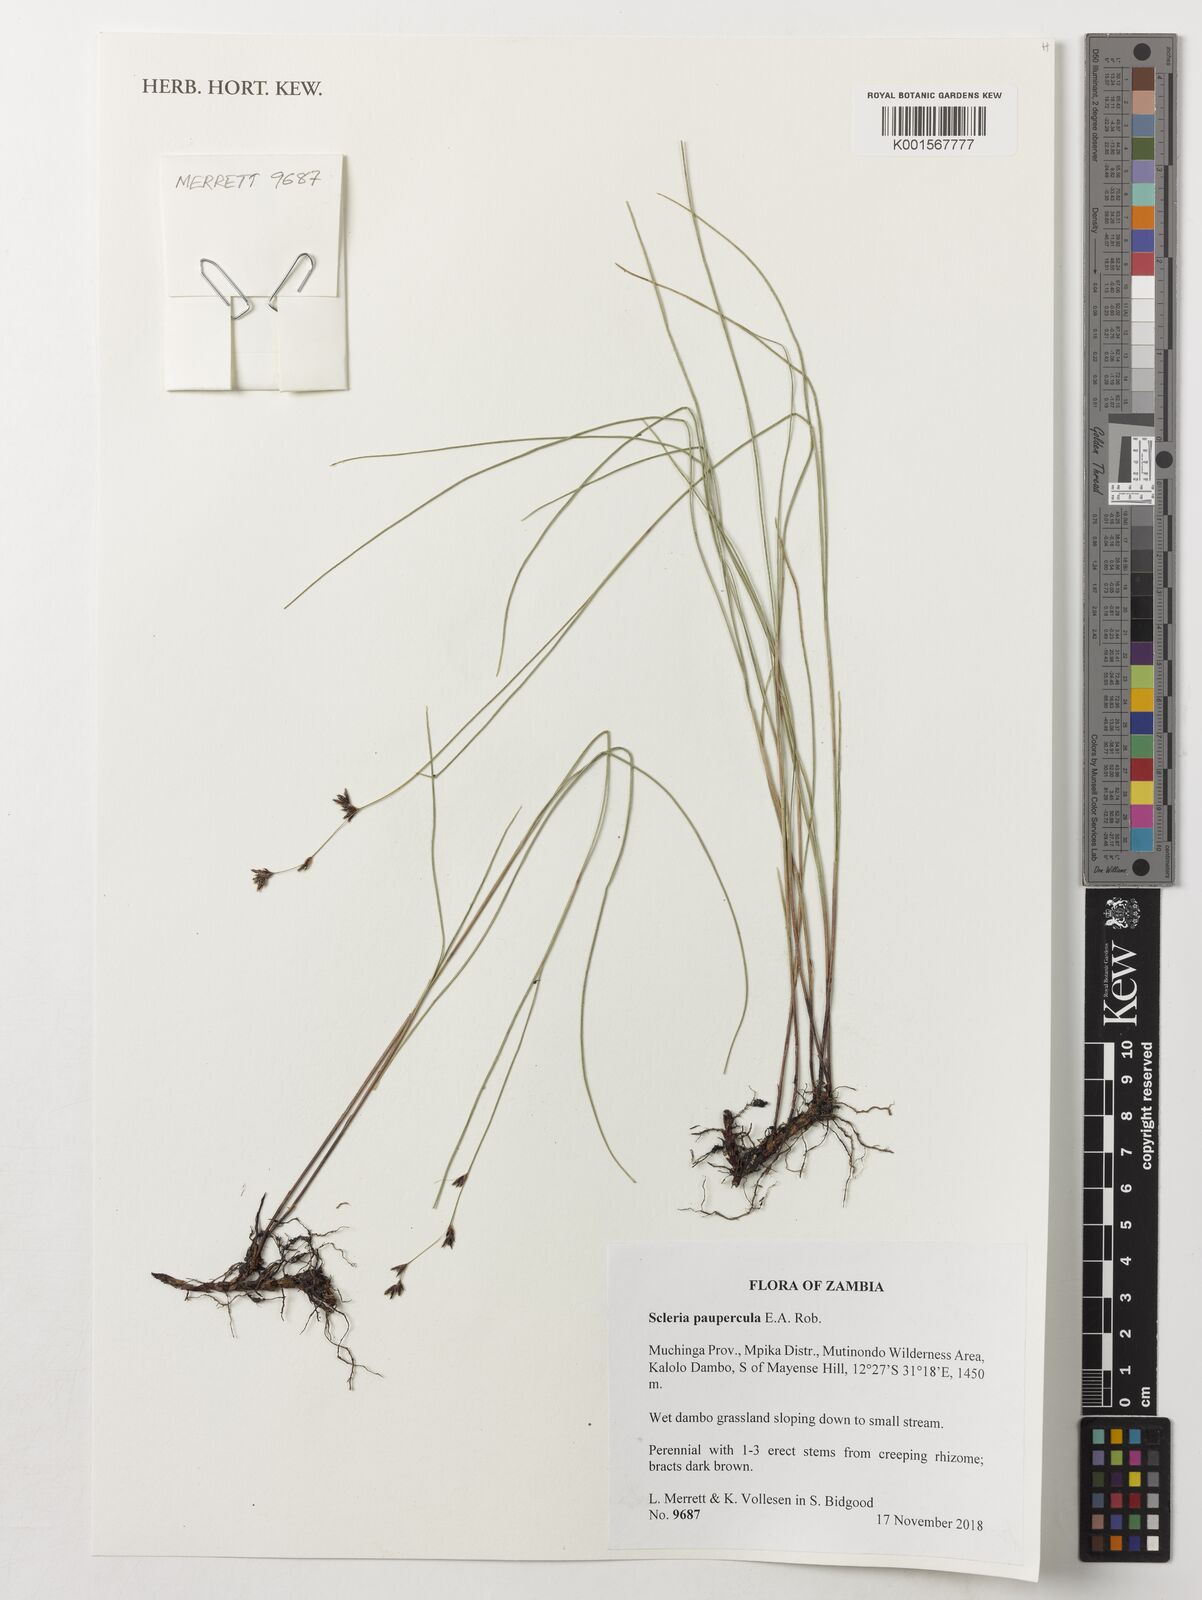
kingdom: Plantae
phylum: Tracheophyta
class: Liliopsida
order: Poales
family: Cyperaceae
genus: Scleria
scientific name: Scleria paupercula
